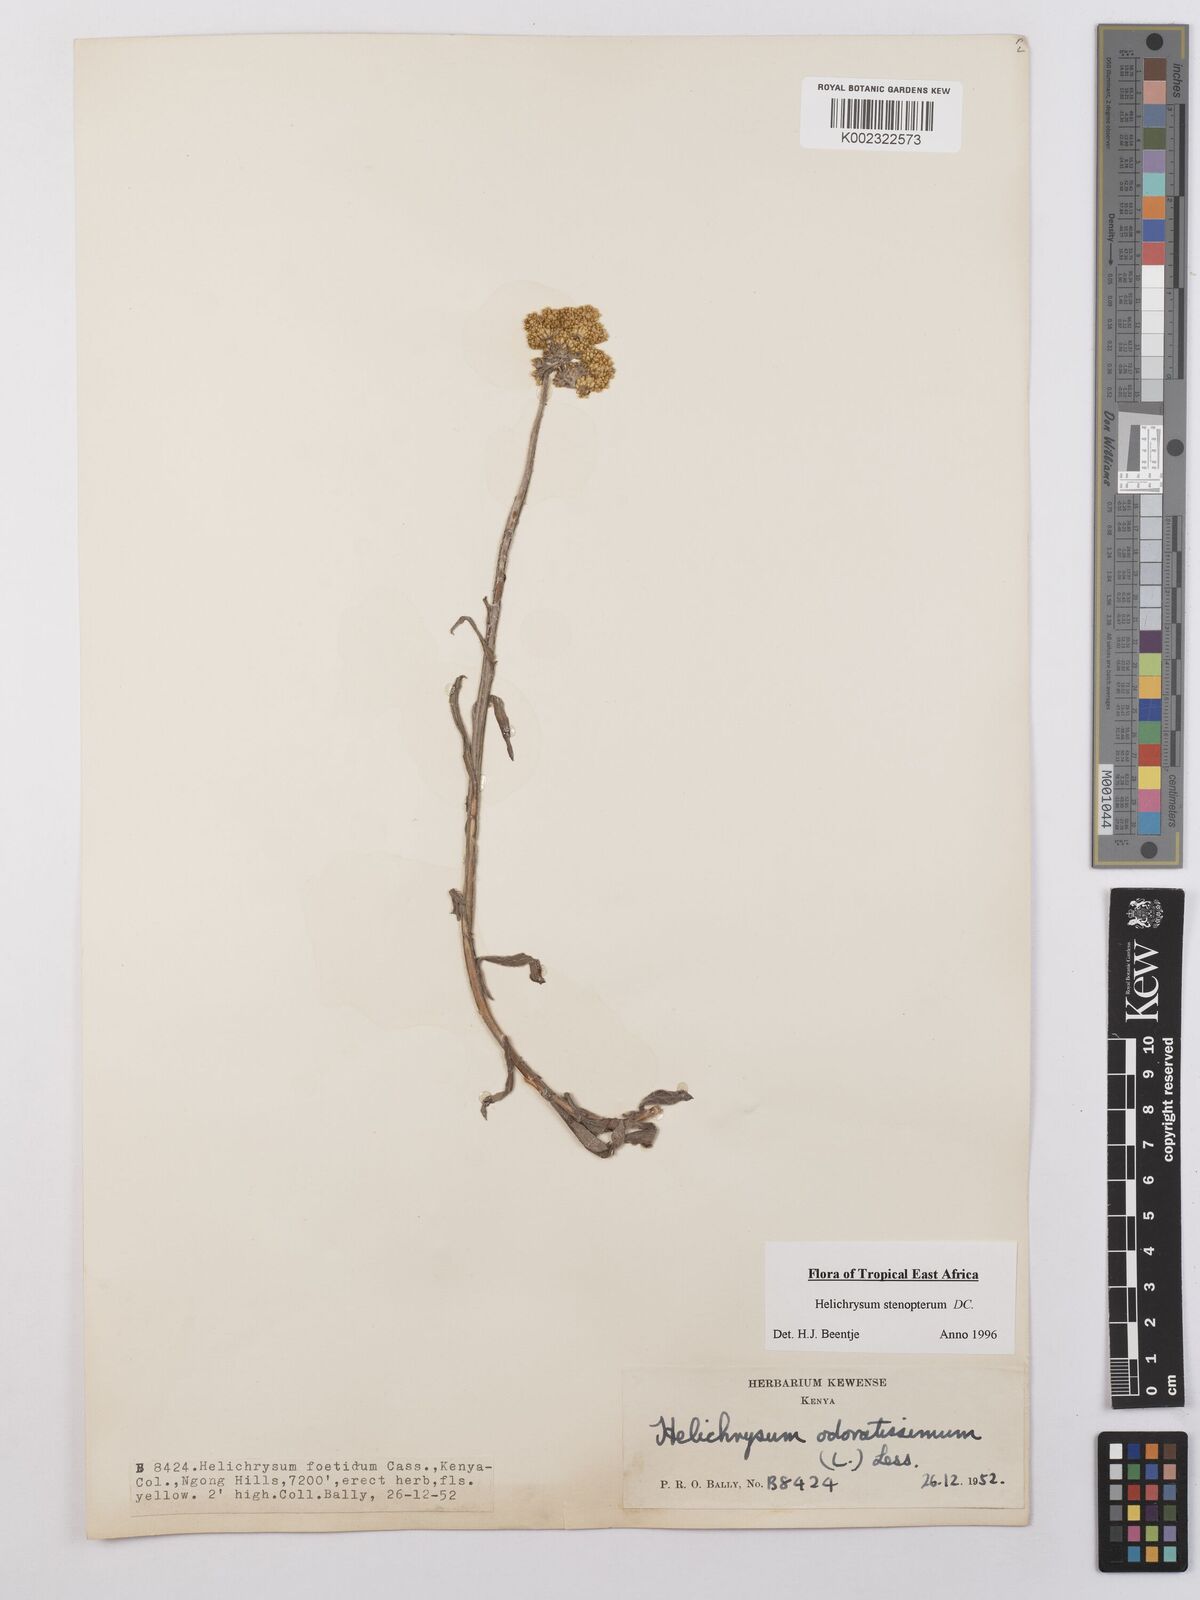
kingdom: Plantae
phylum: Tracheophyta
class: Magnoliopsida
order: Asterales
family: Asteraceae
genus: Helichrysum
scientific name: Helichrysum stenopterum
